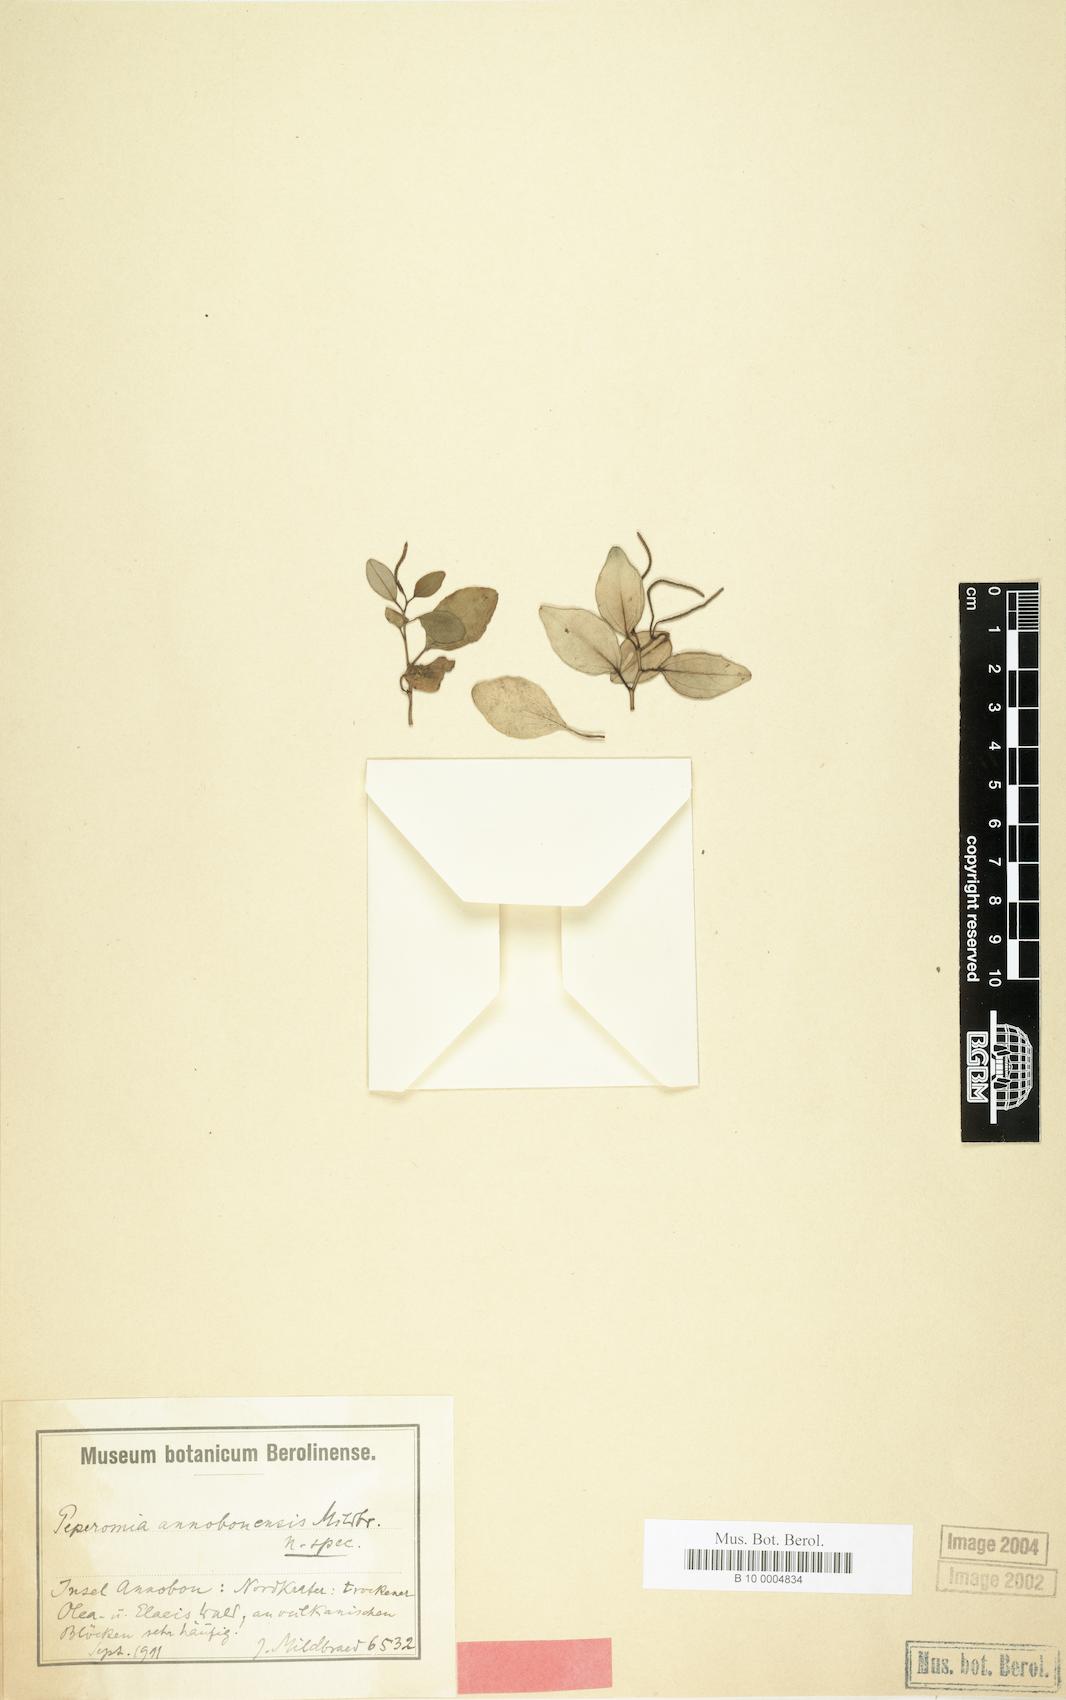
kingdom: Plantae
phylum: Tracheophyta
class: Magnoliopsida
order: Piperales
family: Piperaceae
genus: Peperomia
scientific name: Peperomia vulcanica
